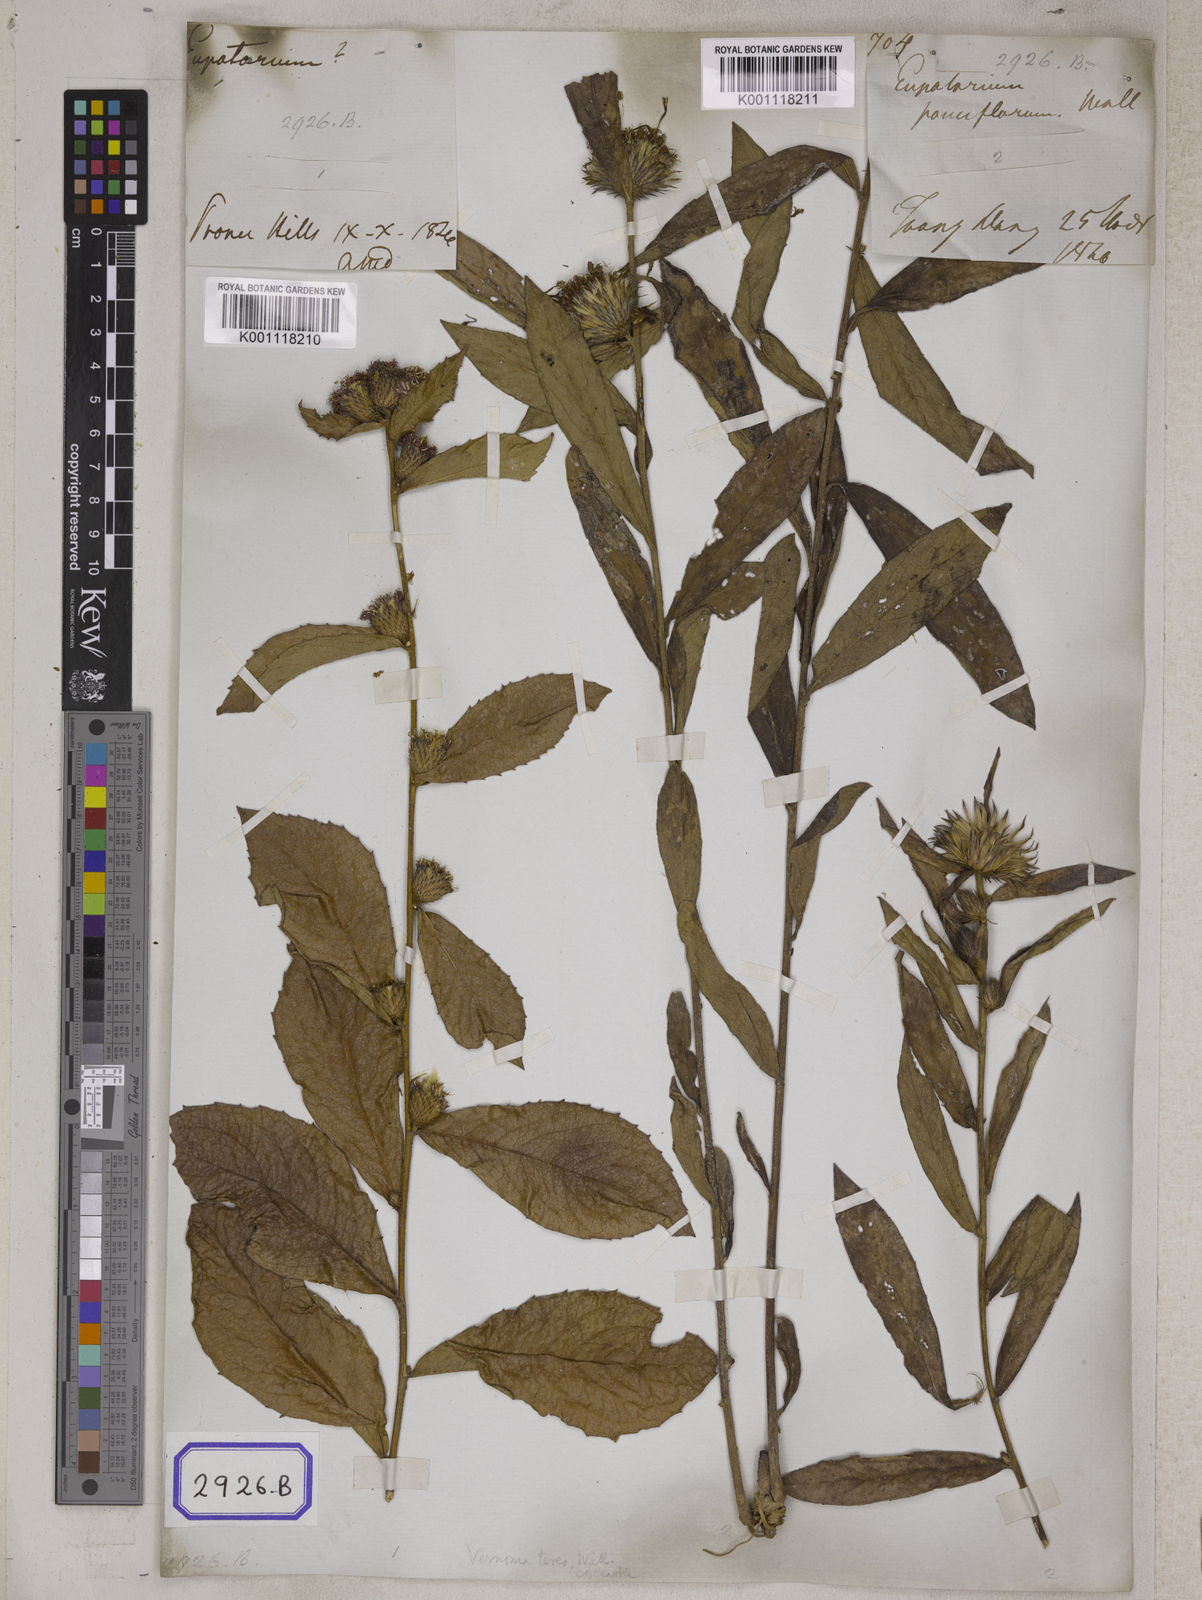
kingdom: Plantae
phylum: Tracheophyta
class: Magnoliopsida
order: Asterales
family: Asteraceae
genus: Acilepis
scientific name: Acilepis squarrosa
